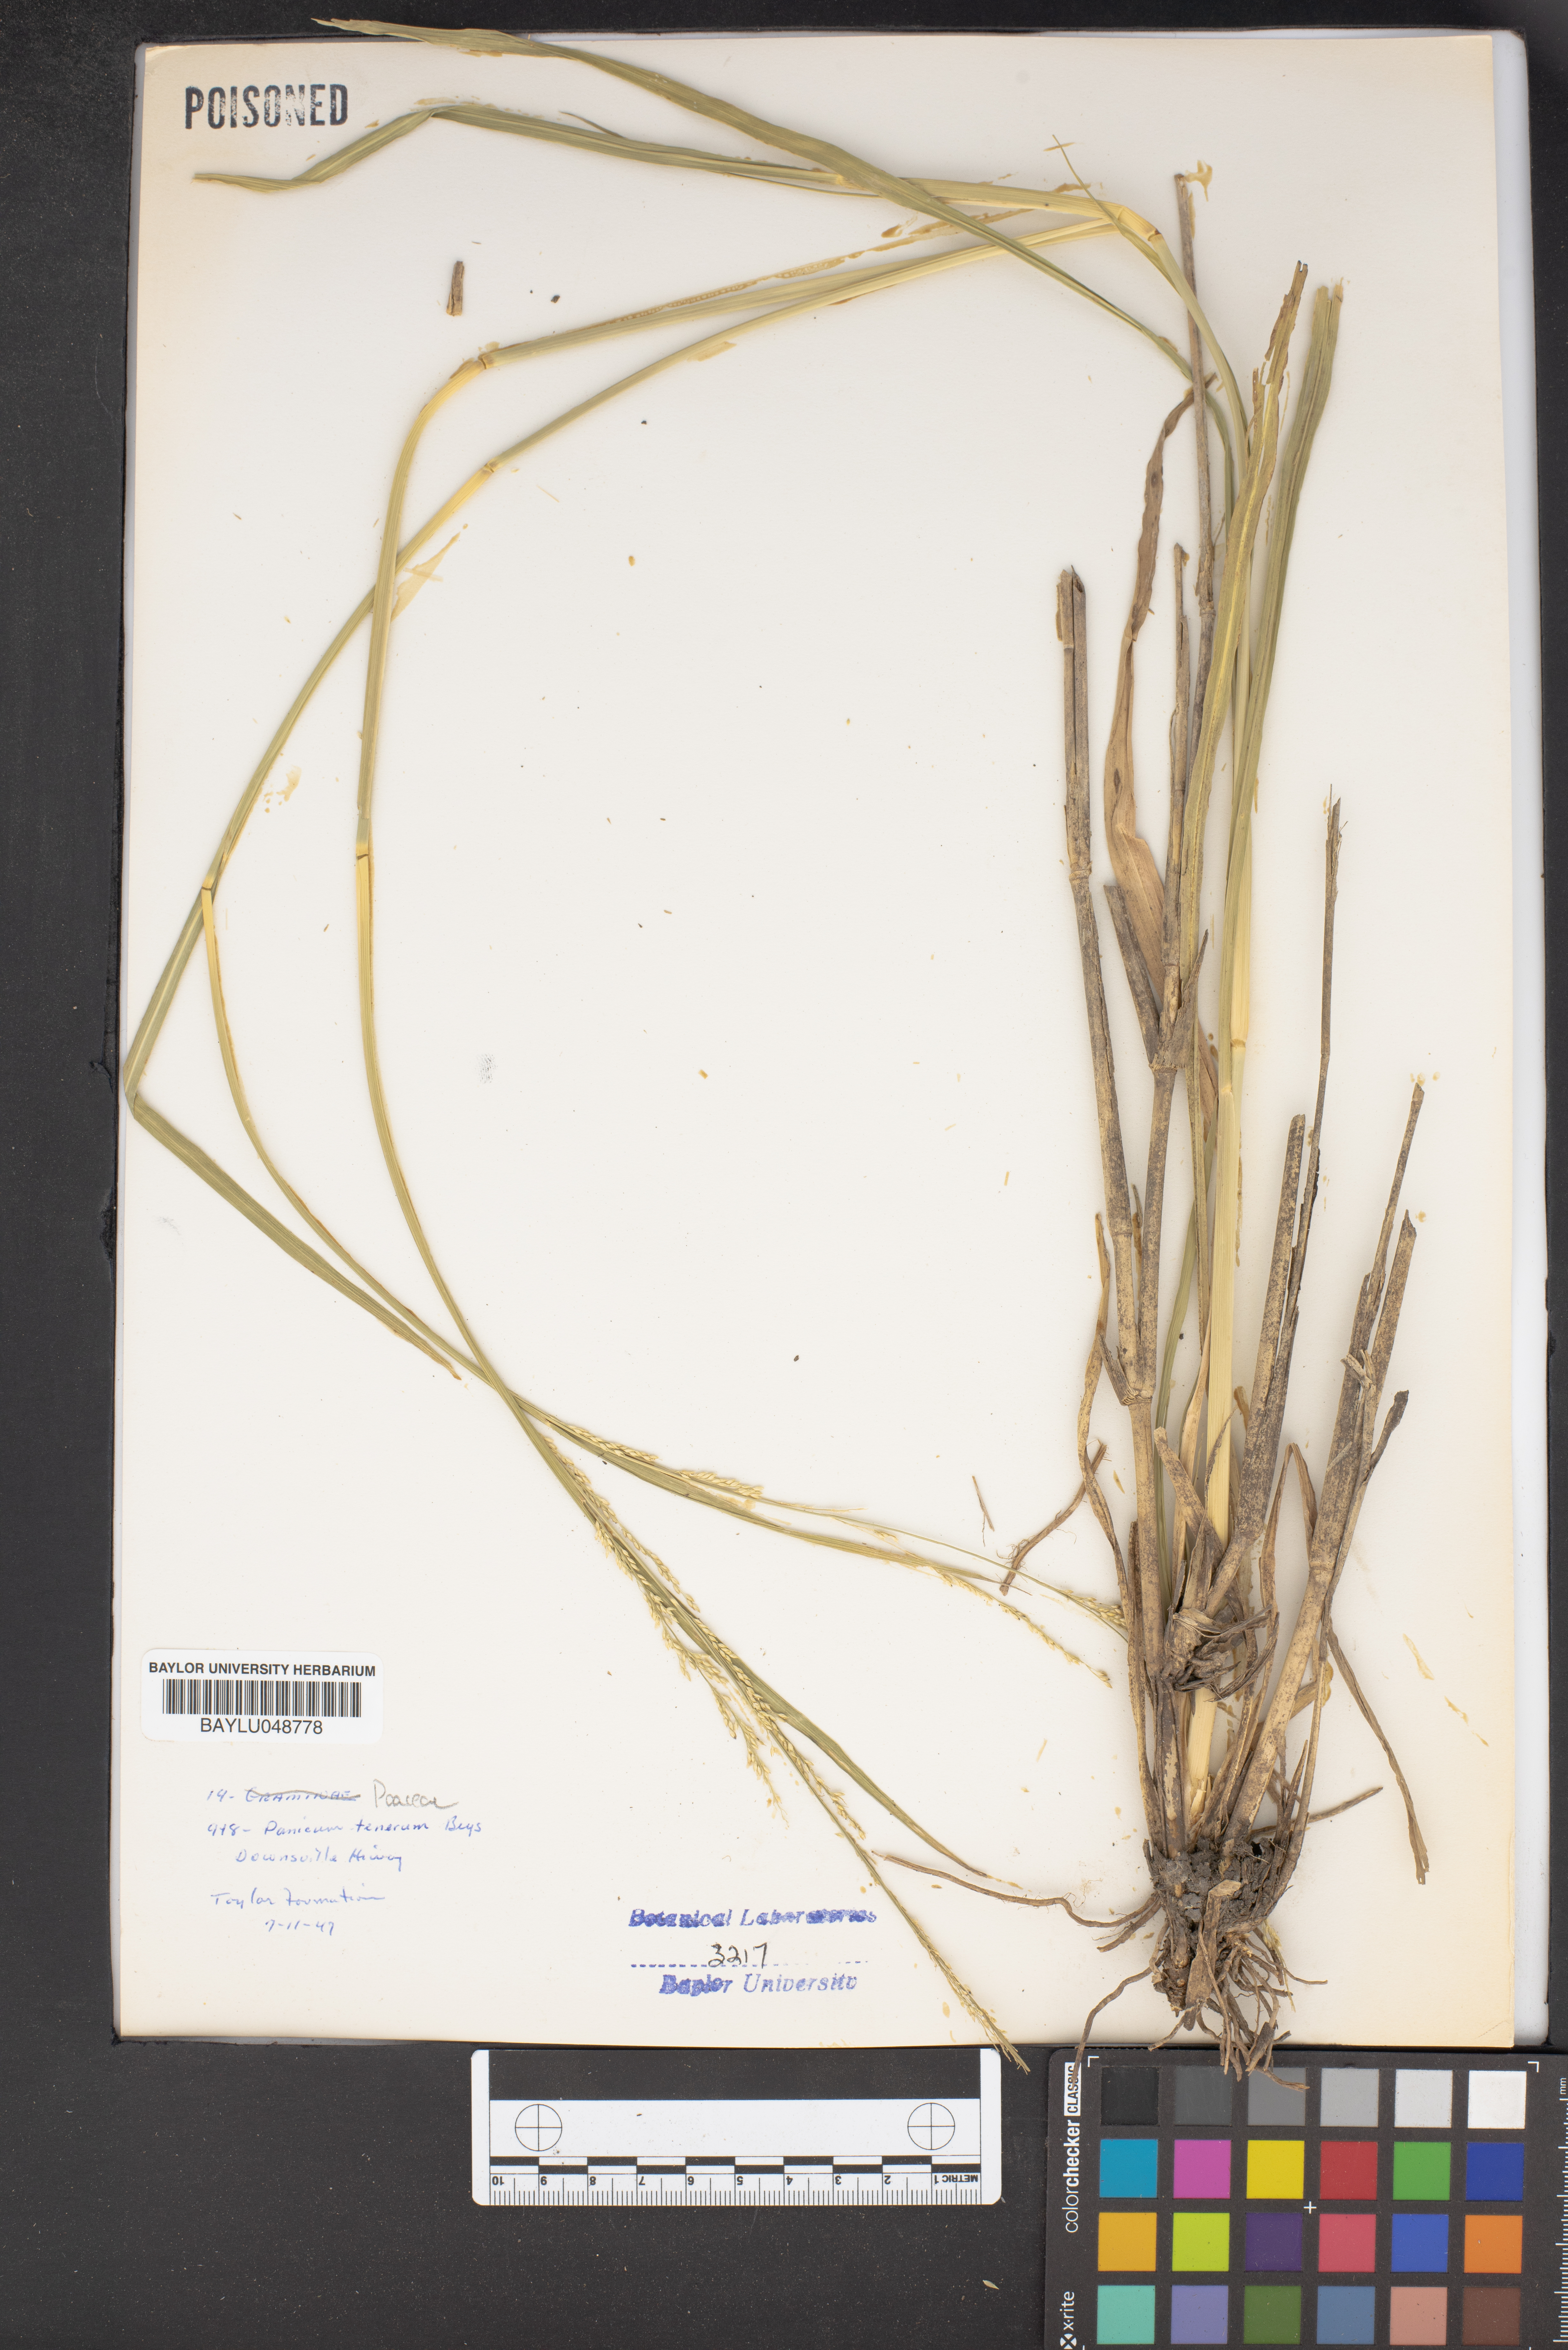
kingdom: Plantae
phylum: Tracheophyta
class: Liliopsida
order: Poales
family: Poaceae
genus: Coleataenia
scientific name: Coleataenia tenera
